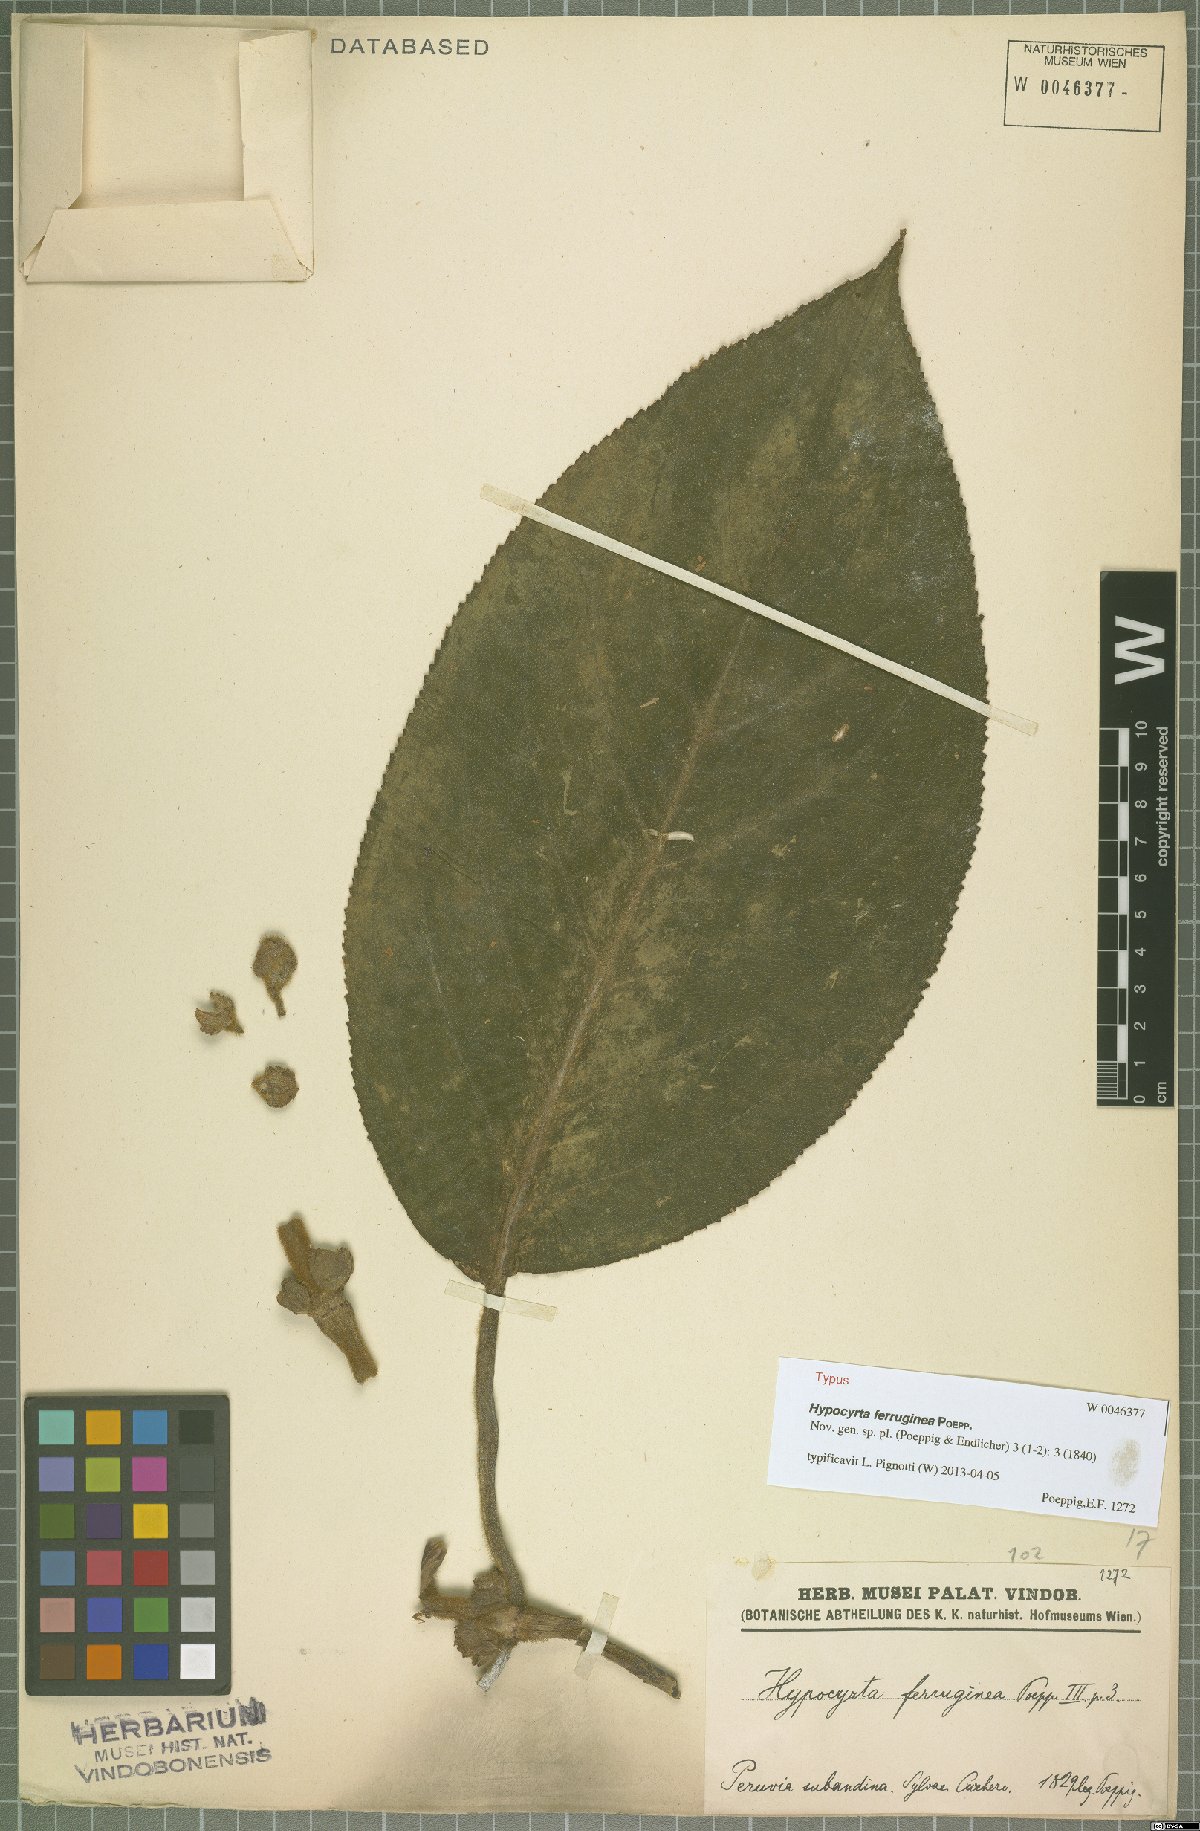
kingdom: Plantae
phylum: Tracheophyta
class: Magnoliopsida
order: Lamiales
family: Gesneriaceae
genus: Nematanthus
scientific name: Nematanthus Hypocyrta ferruginea
